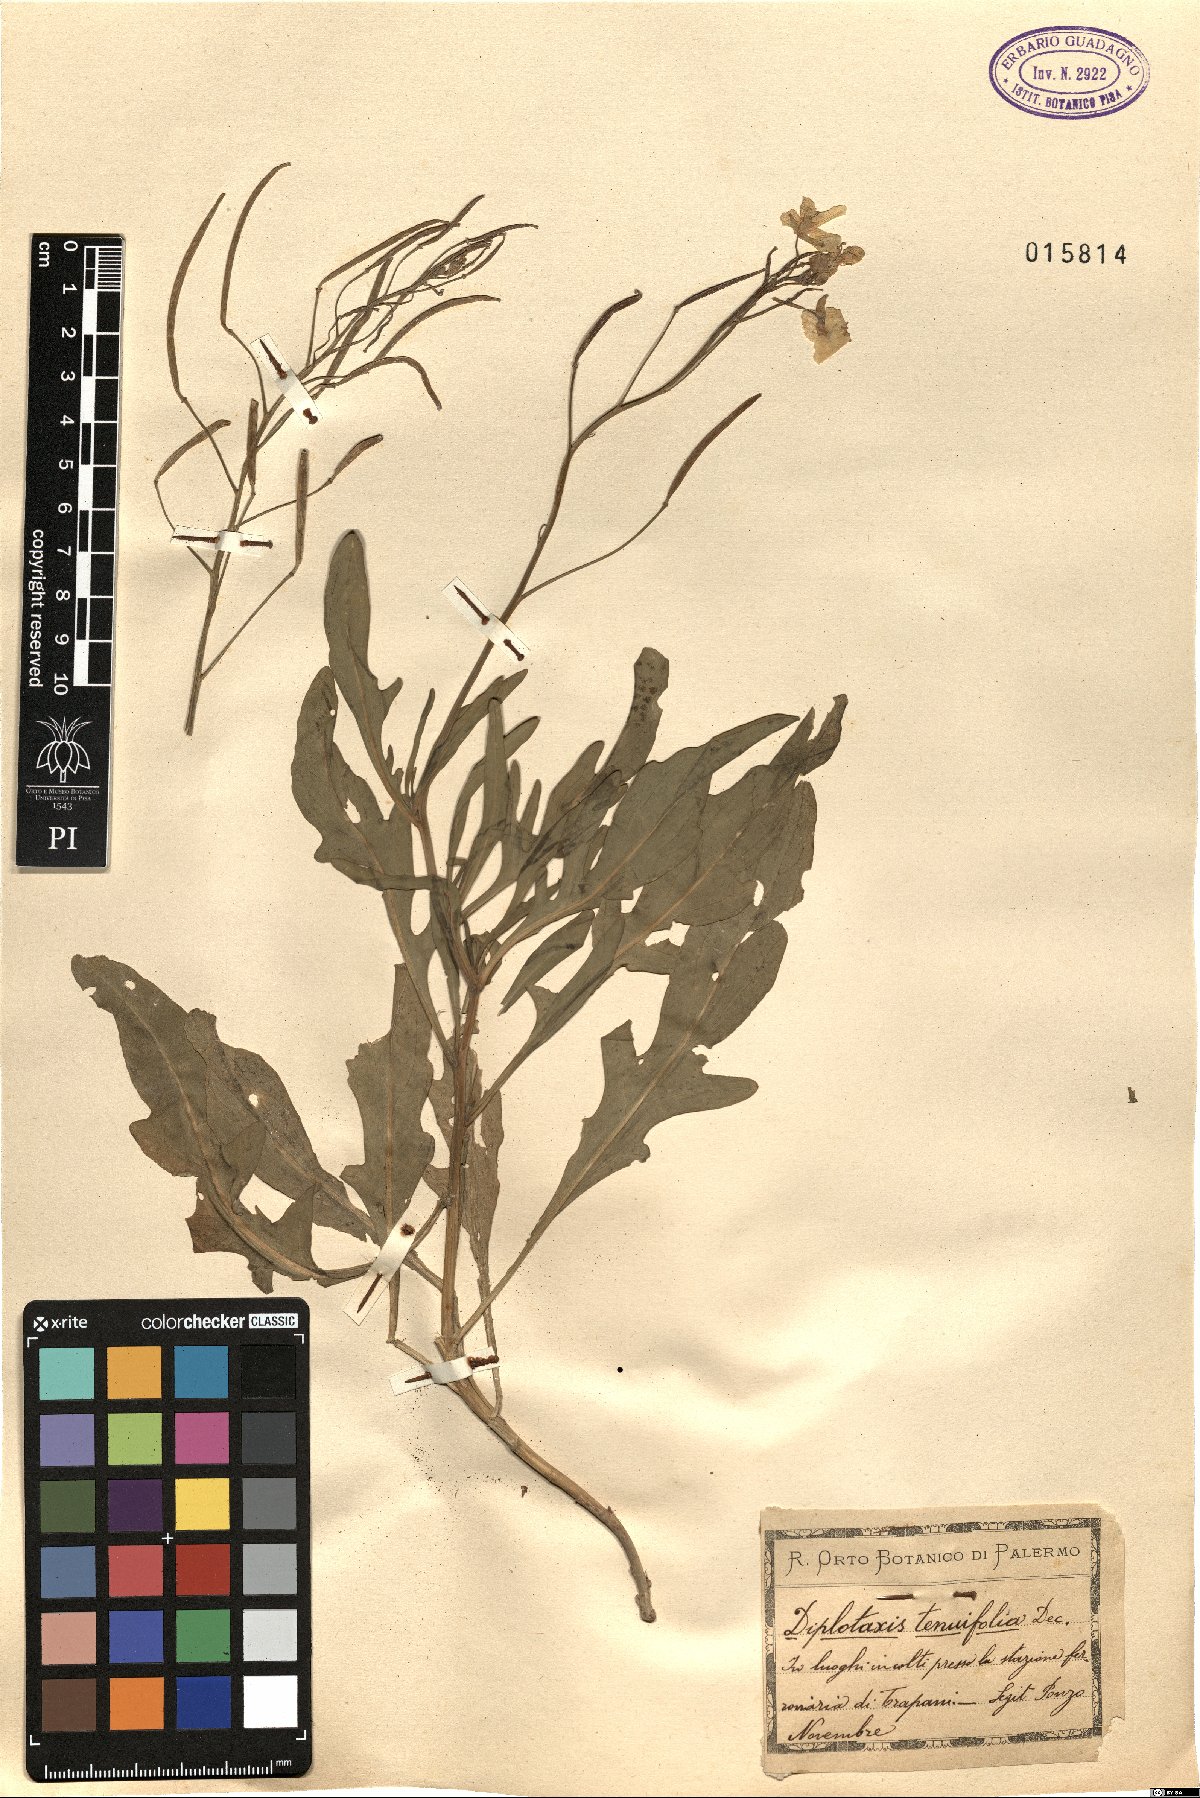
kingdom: Plantae
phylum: Tracheophyta
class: Magnoliopsida
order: Brassicales
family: Brassicaceae
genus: Diplotaxis
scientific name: Diplotaxis tenuifolia
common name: Perennial wall-rocket
